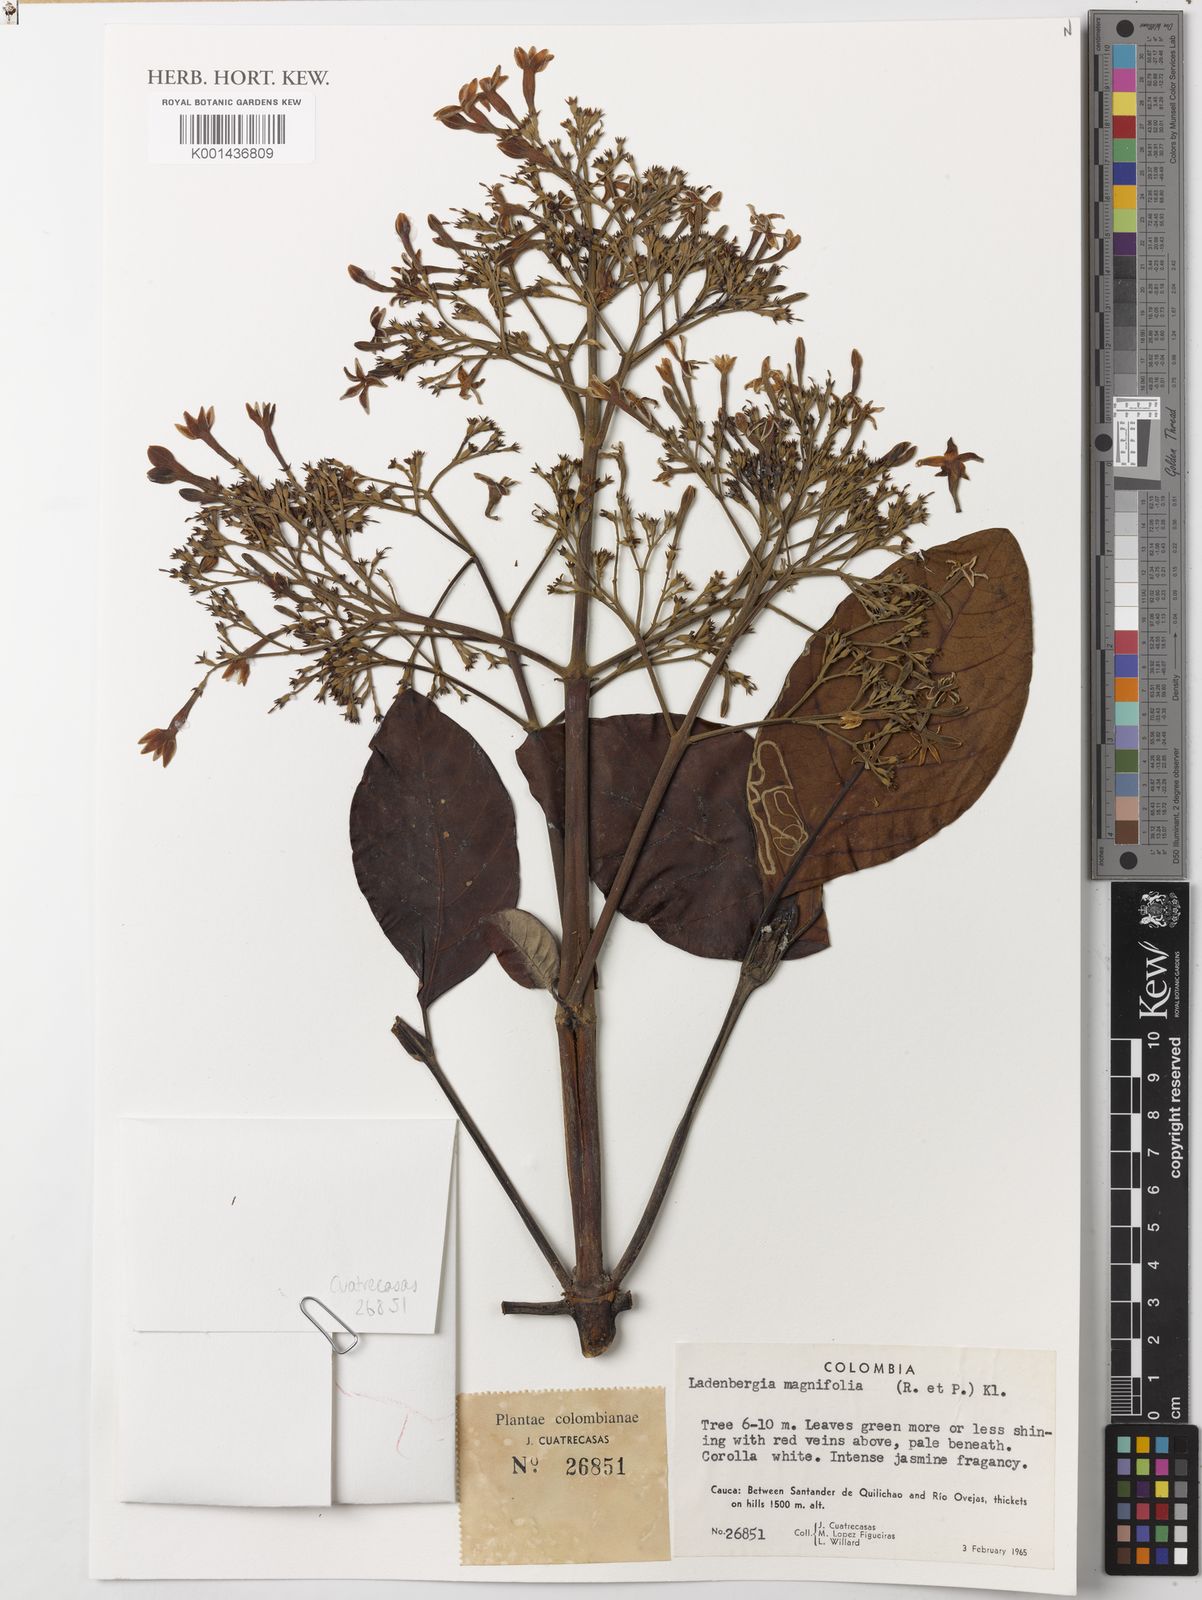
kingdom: Plantae
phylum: Tracheophyta
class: Magnoliopsida
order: Gentianales
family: Rubiaceae
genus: Ladenbergia
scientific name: Ladenbergia oblongifolia
